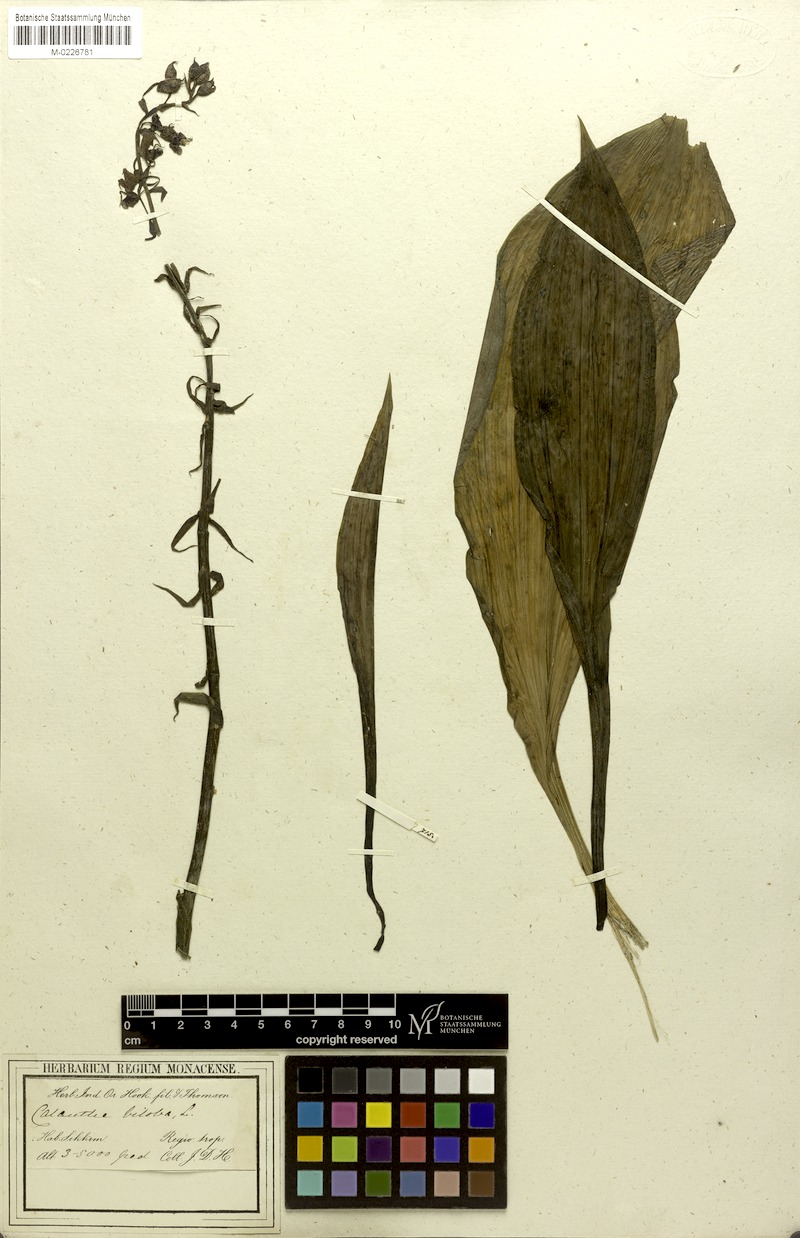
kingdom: Plantae
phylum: Tracheophyta
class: Liliopsida
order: Asparagales
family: Orchidaceae
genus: Calanthe
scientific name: Calanthe biloba
